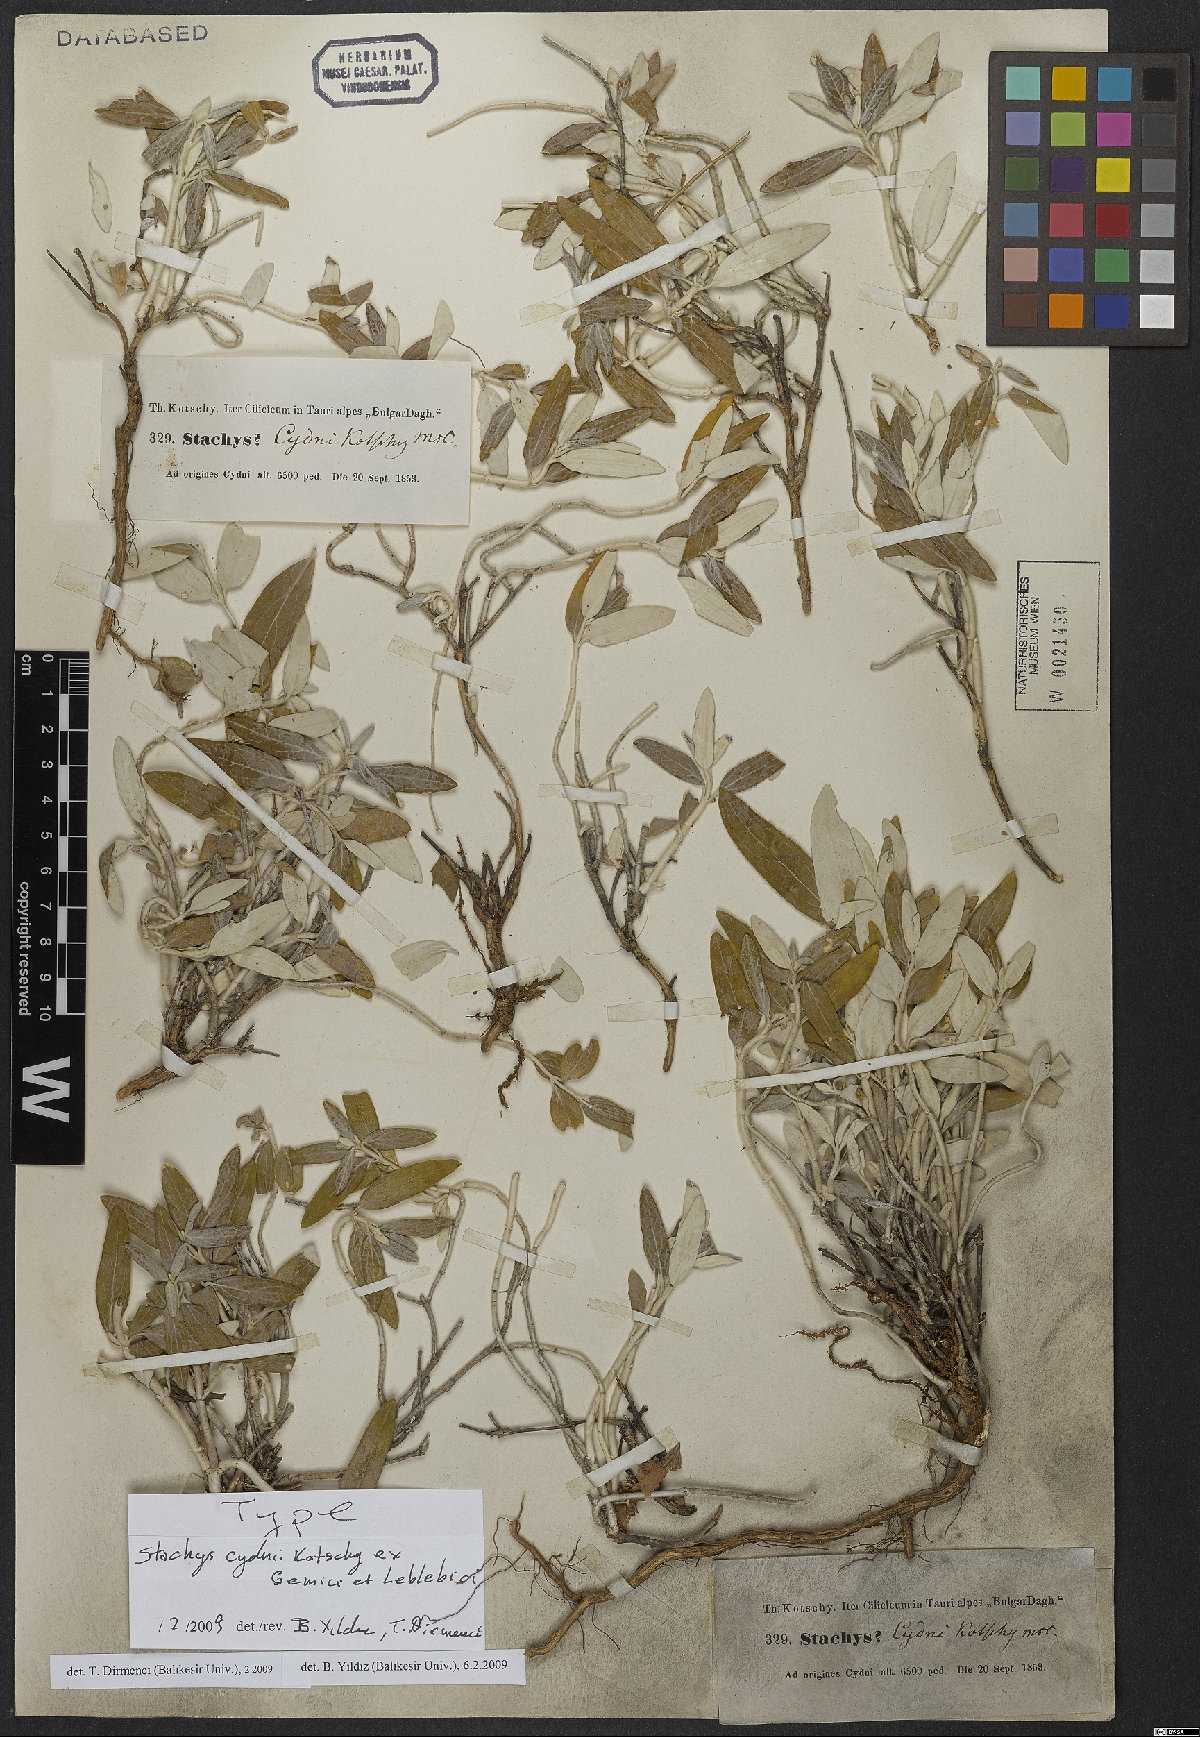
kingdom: Plantae
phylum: Tracheophyta
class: Magnoliopsida
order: Lamiales
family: Lamiaceae
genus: Stachys
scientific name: Stachys cydni
